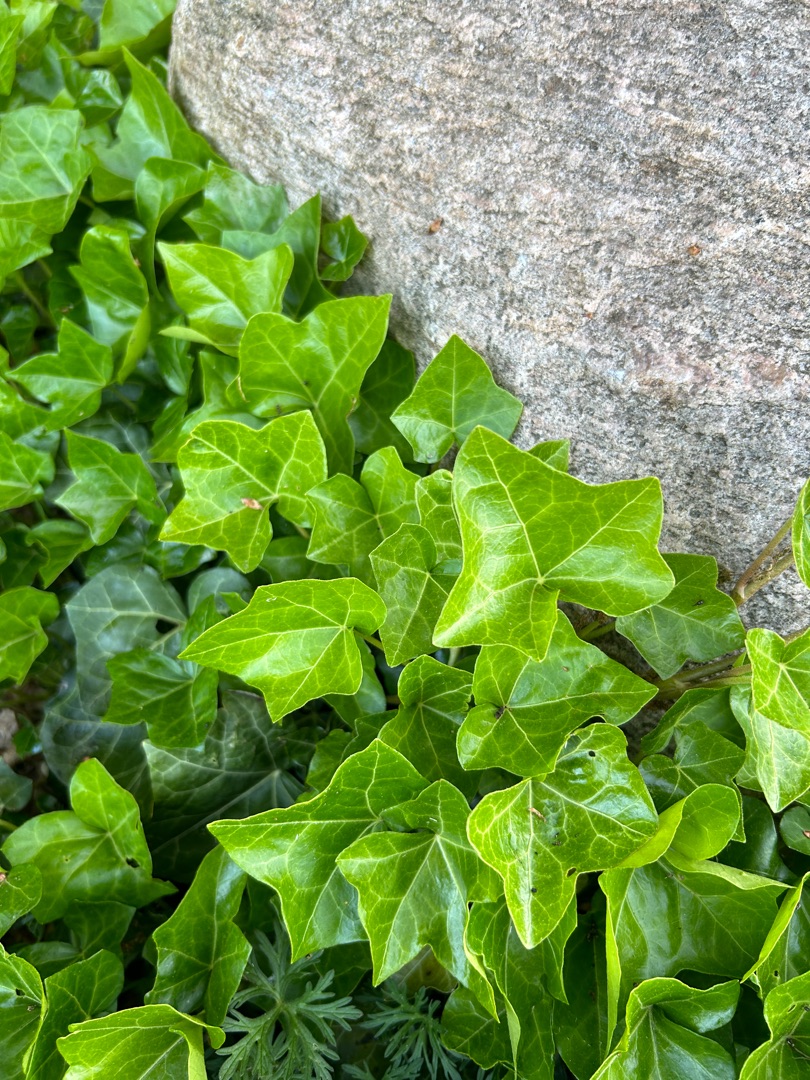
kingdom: Plantae
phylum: Tracheophyta
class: Magnoliopsida
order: Apiales
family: Araliaceae
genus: Hedera
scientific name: Hedera helix
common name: Vedbend
